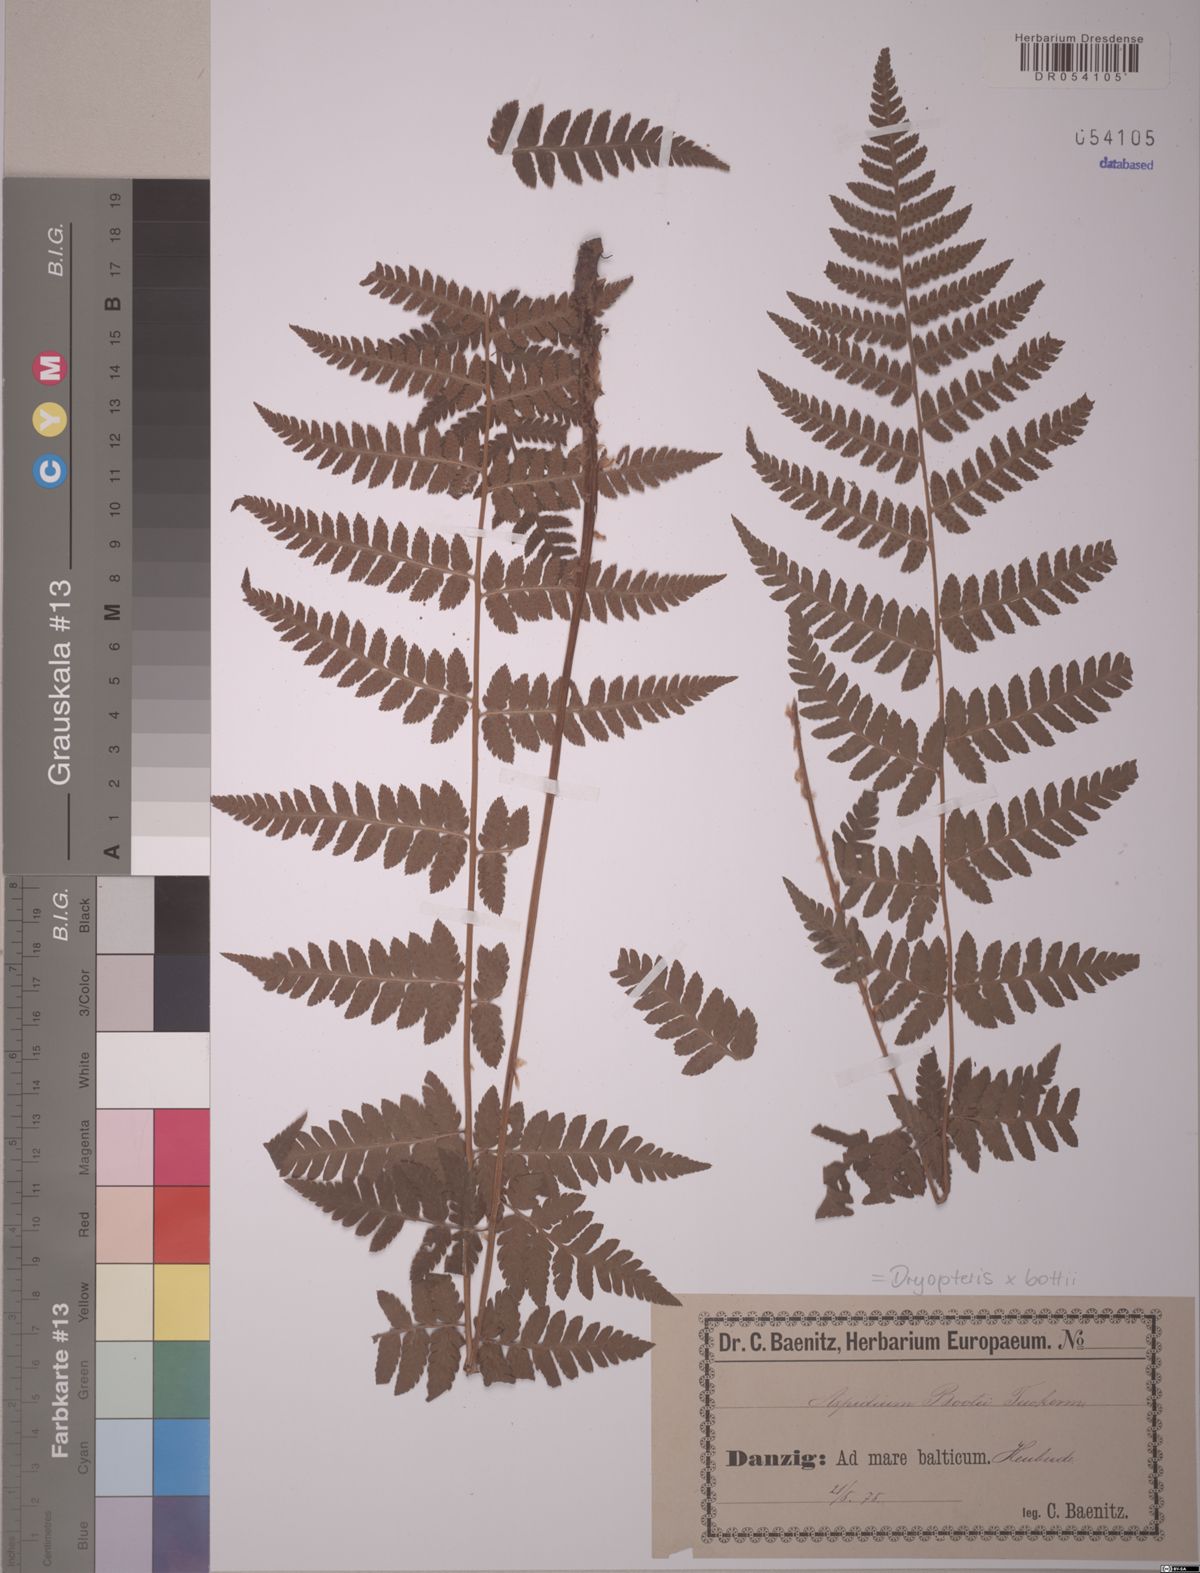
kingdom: Plantae
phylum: Tracheophyta
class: Polypodiopsida
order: Polypodiales
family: Dryopteridaceae
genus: Dryopteris
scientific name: Dryopteris boottii
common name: Boott's fern
